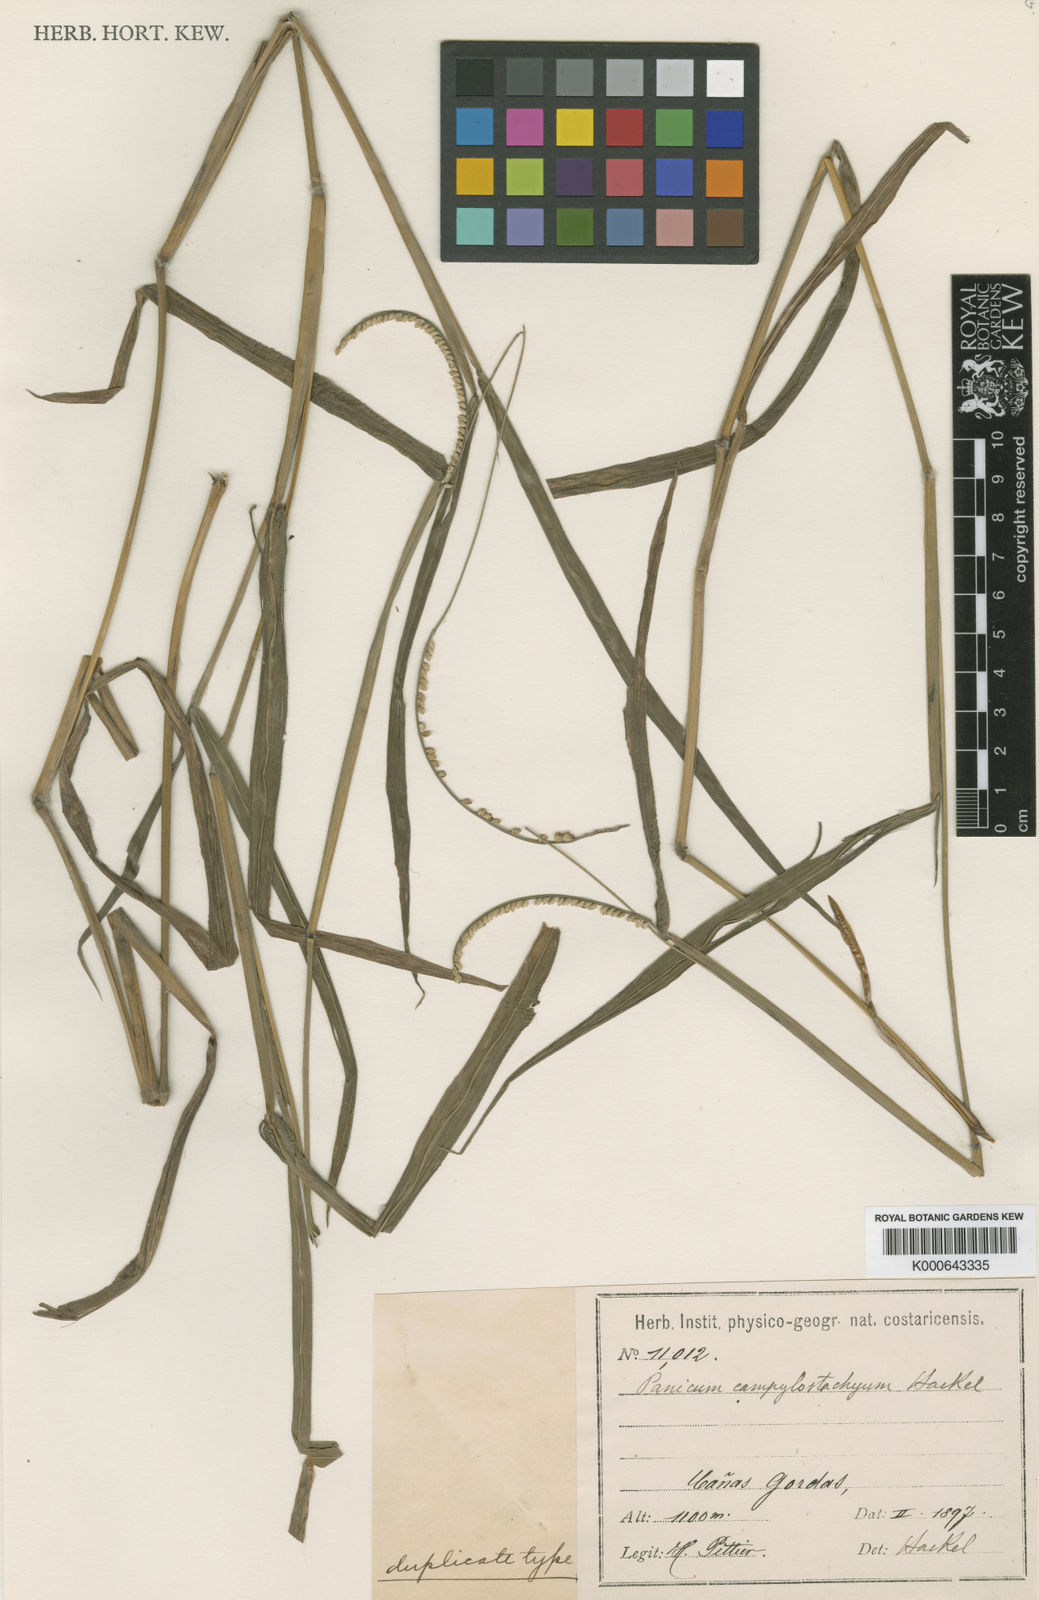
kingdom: Plantae
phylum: Tracheophyta
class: Liliopsida
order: Poales
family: Poaceae
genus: Paspalum
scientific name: Paspalum campylostachyum
